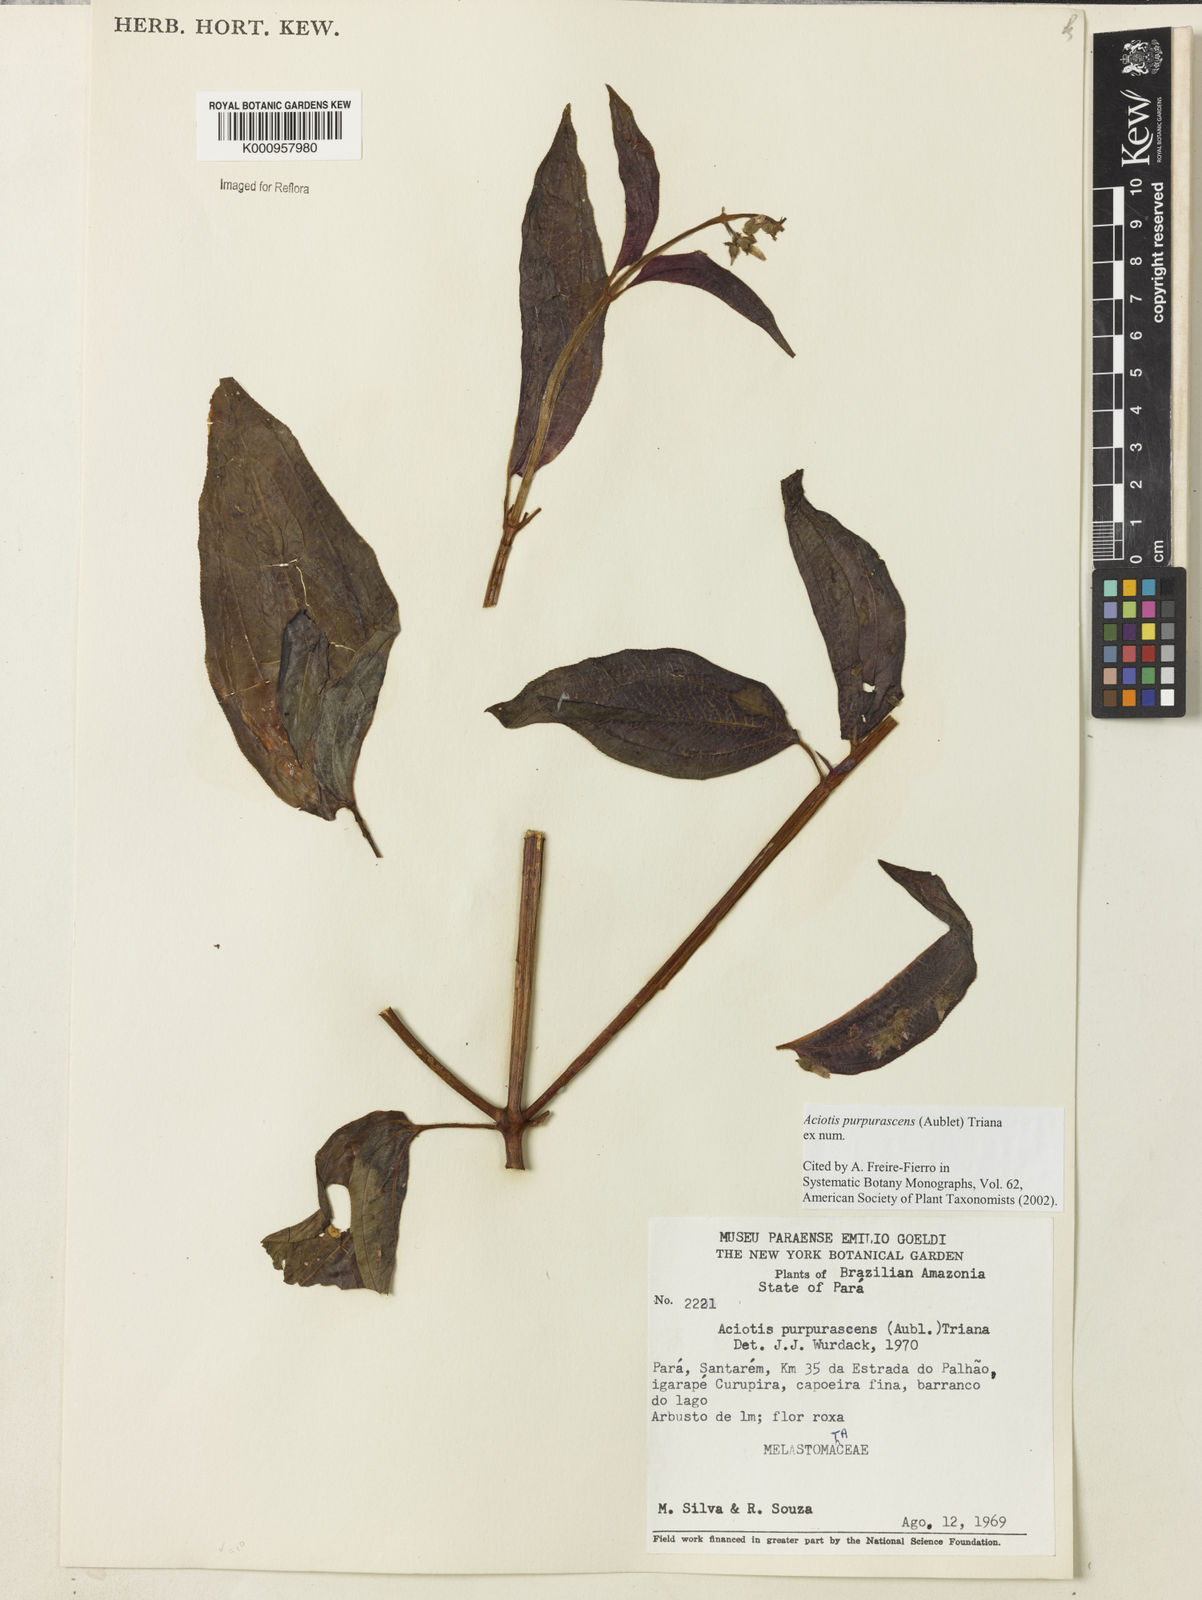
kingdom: Plantae
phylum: Tracheophyta
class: Magnoliopsida
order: Myrtales
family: Melastomataceae
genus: Aciotis
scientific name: Aciotis purpurascens
